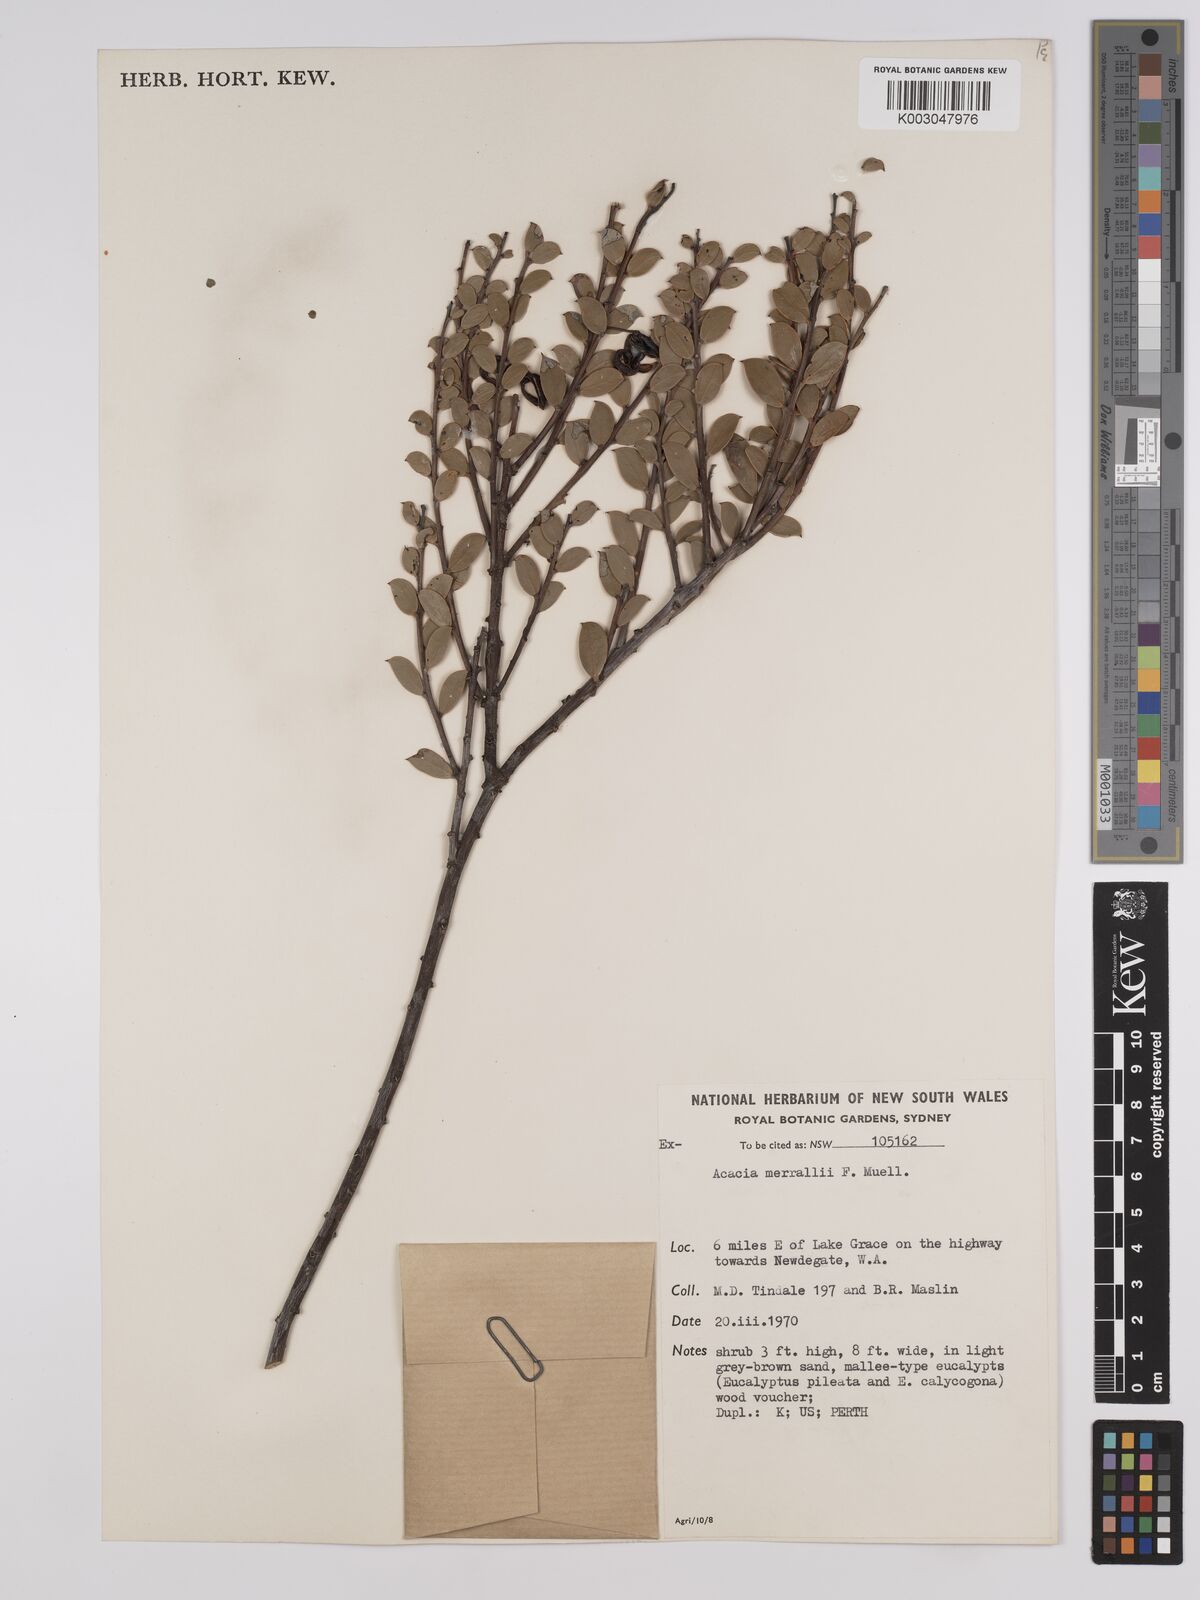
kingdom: Plantae
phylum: Tracheophyta
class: Magnoliopsida
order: Fabales
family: Fabaceae
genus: Acacia
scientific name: Acacia sericocarpa
